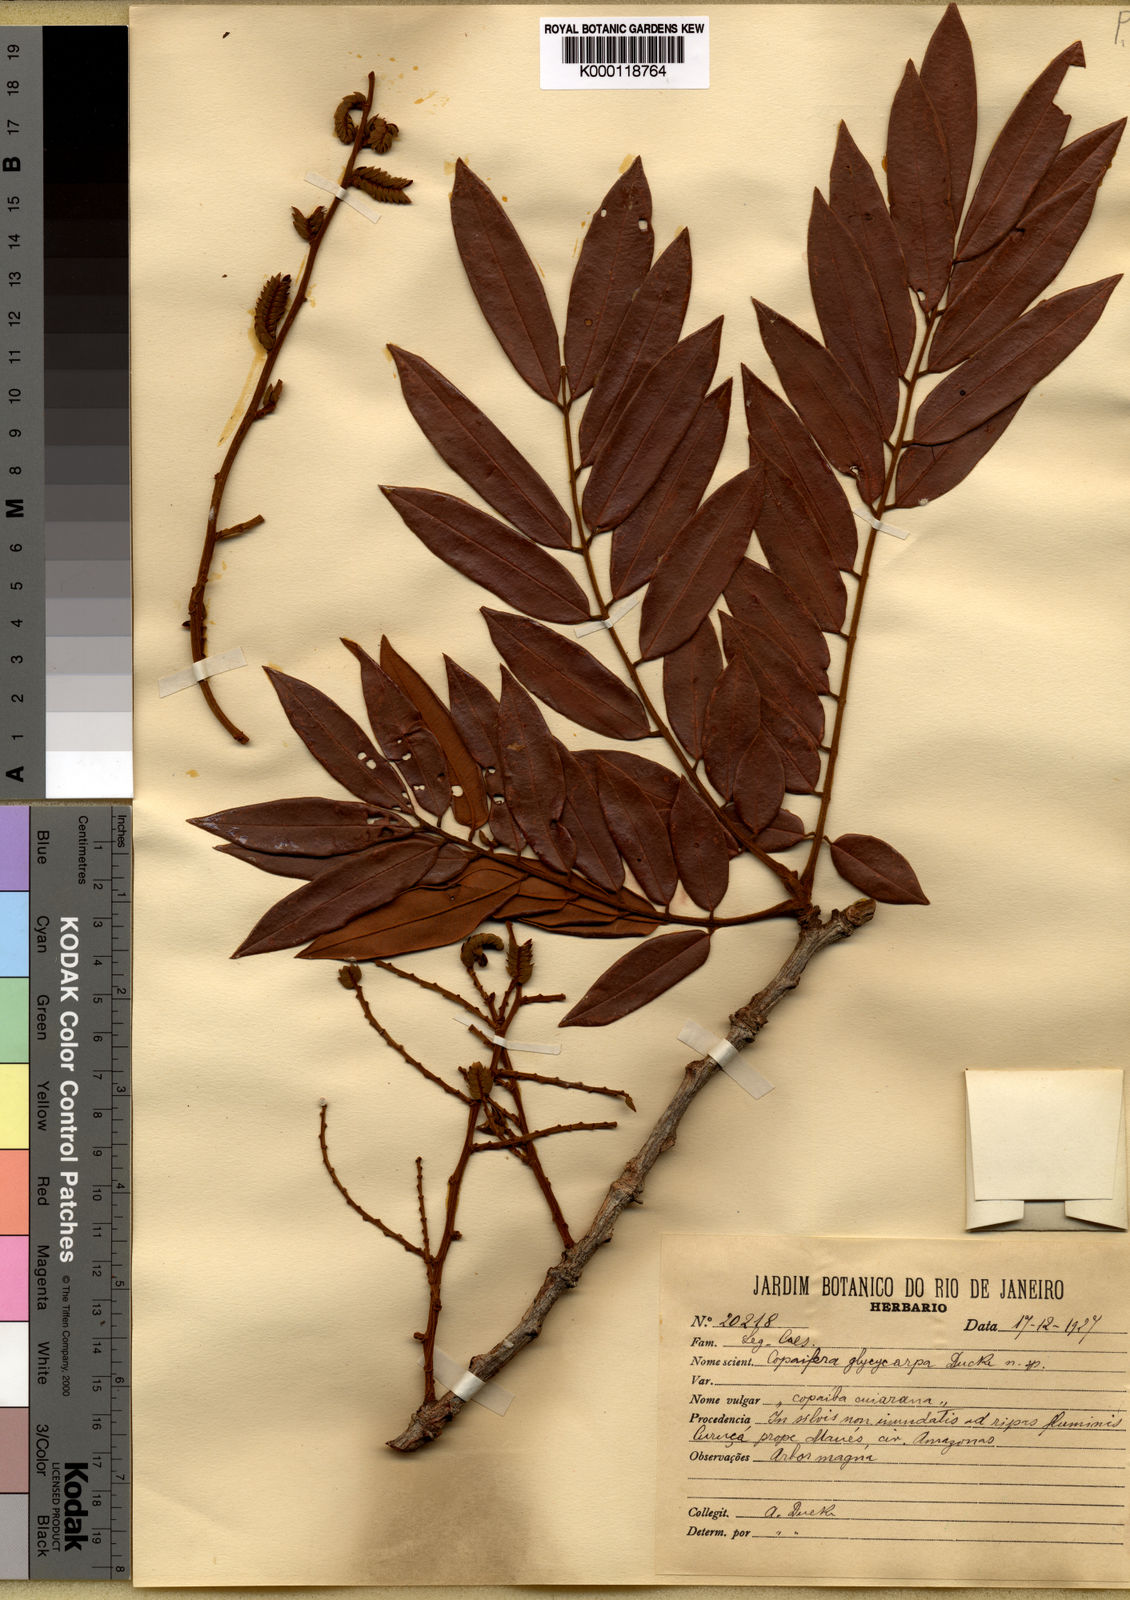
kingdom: Plantae
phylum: Tracheophyta
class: Magnoliopsida
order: Fabales
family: Fabaceae
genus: Copaifera
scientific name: Copaifera glycycarpa
